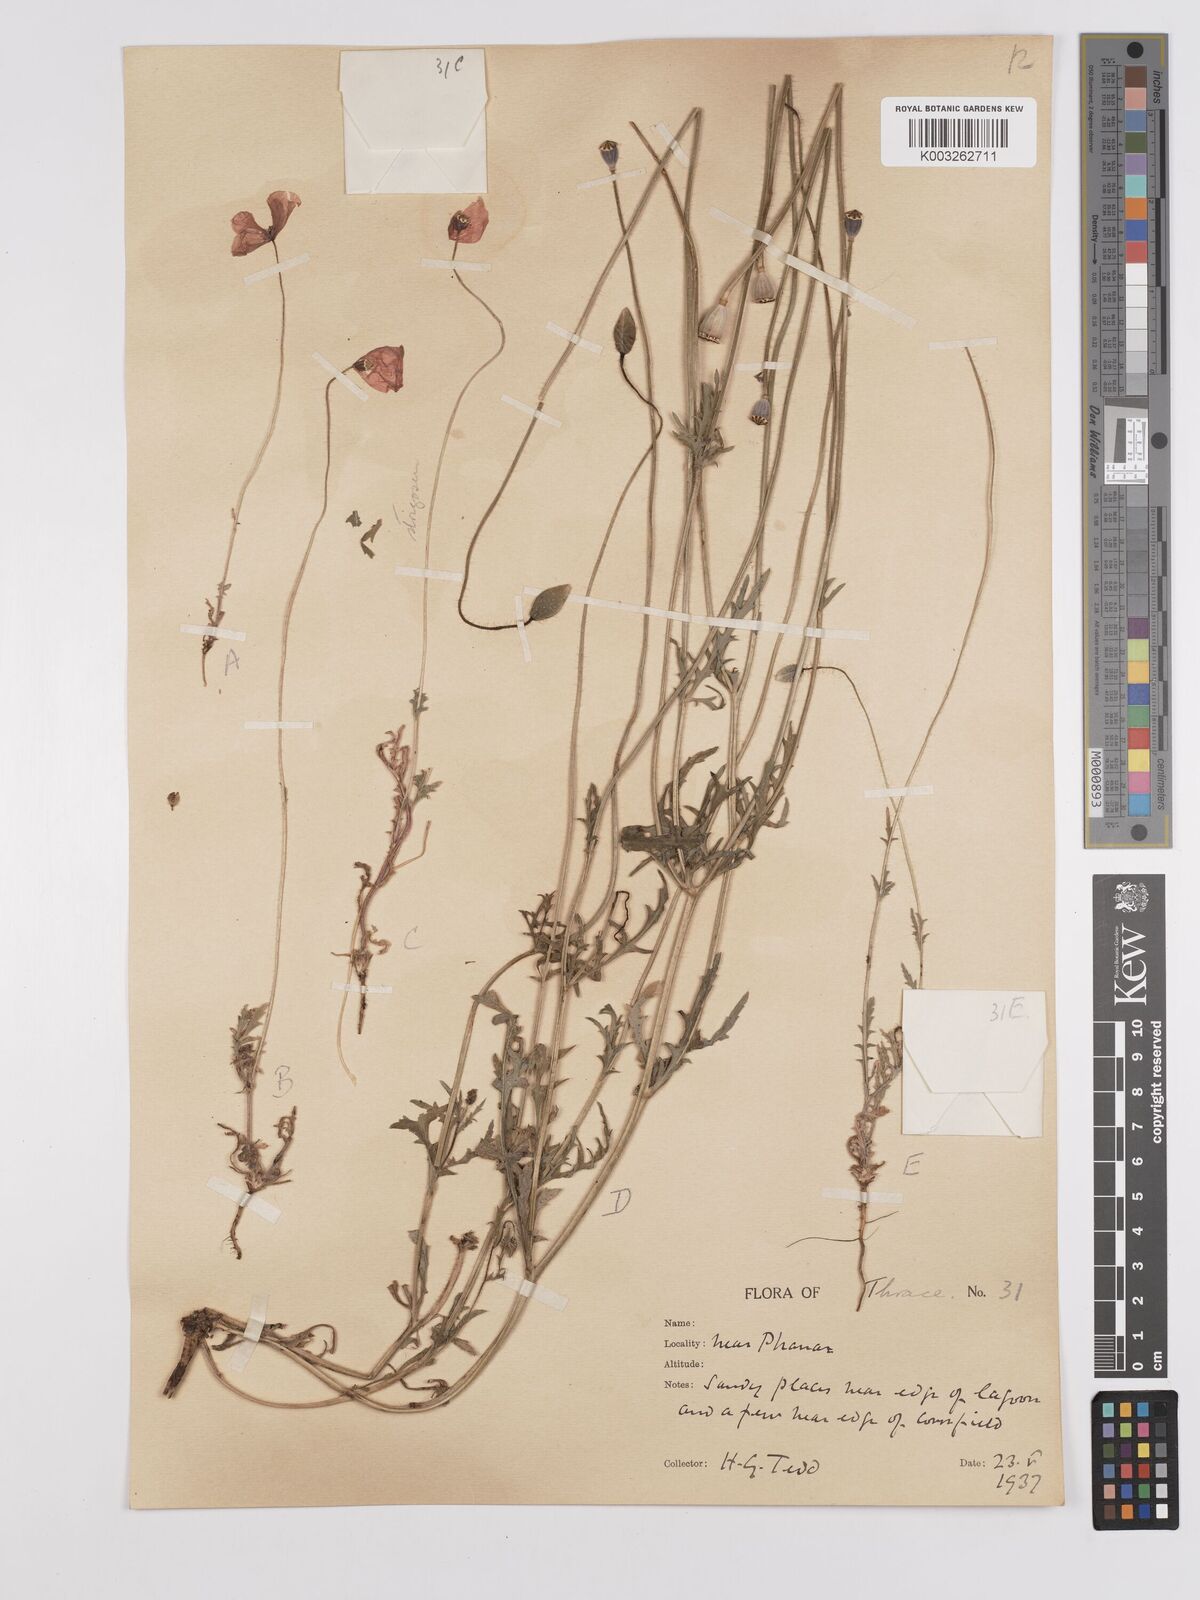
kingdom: Plantae
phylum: Tracheophyta
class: Magnoliopsida
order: Ranunculales
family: Papaveraceae
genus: Papaver
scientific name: Papaver
